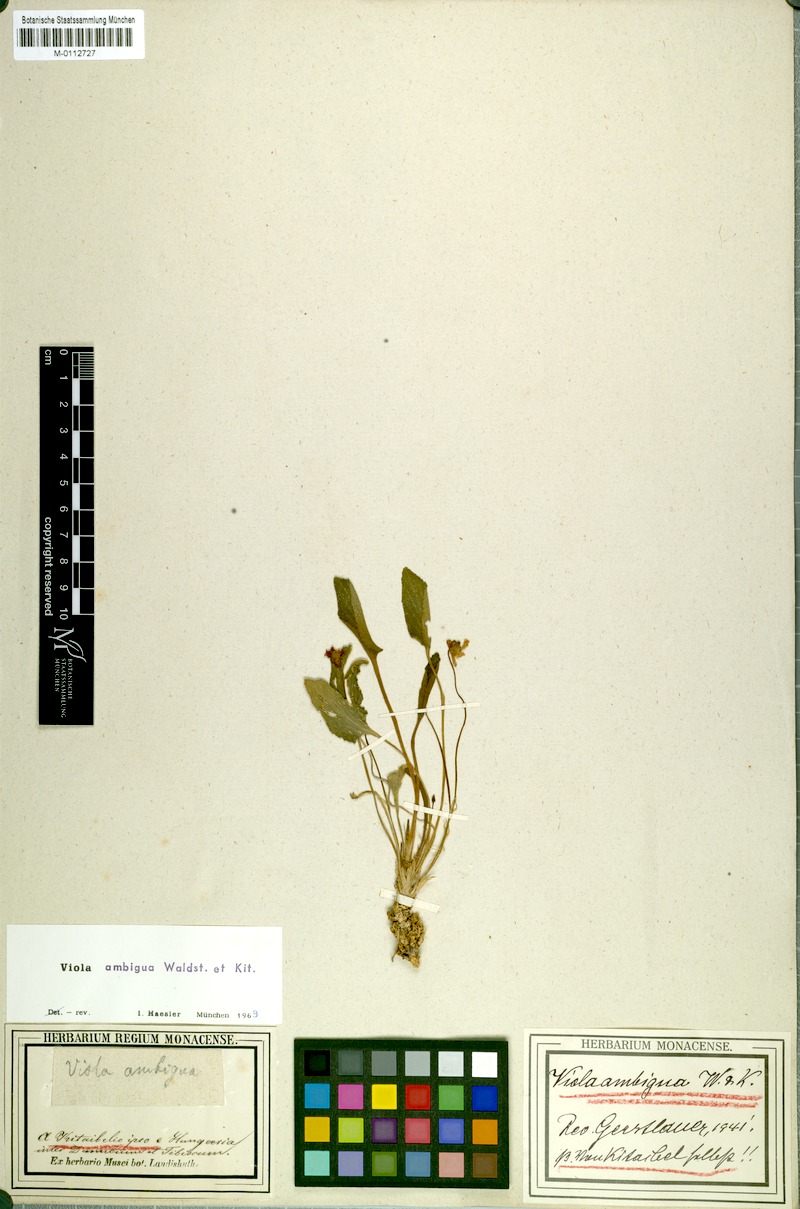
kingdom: Plantae
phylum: Tracheophyta
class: Magnoliopsida
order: Malpighiales
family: Violaceae
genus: Viola
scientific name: Viola ambigua
